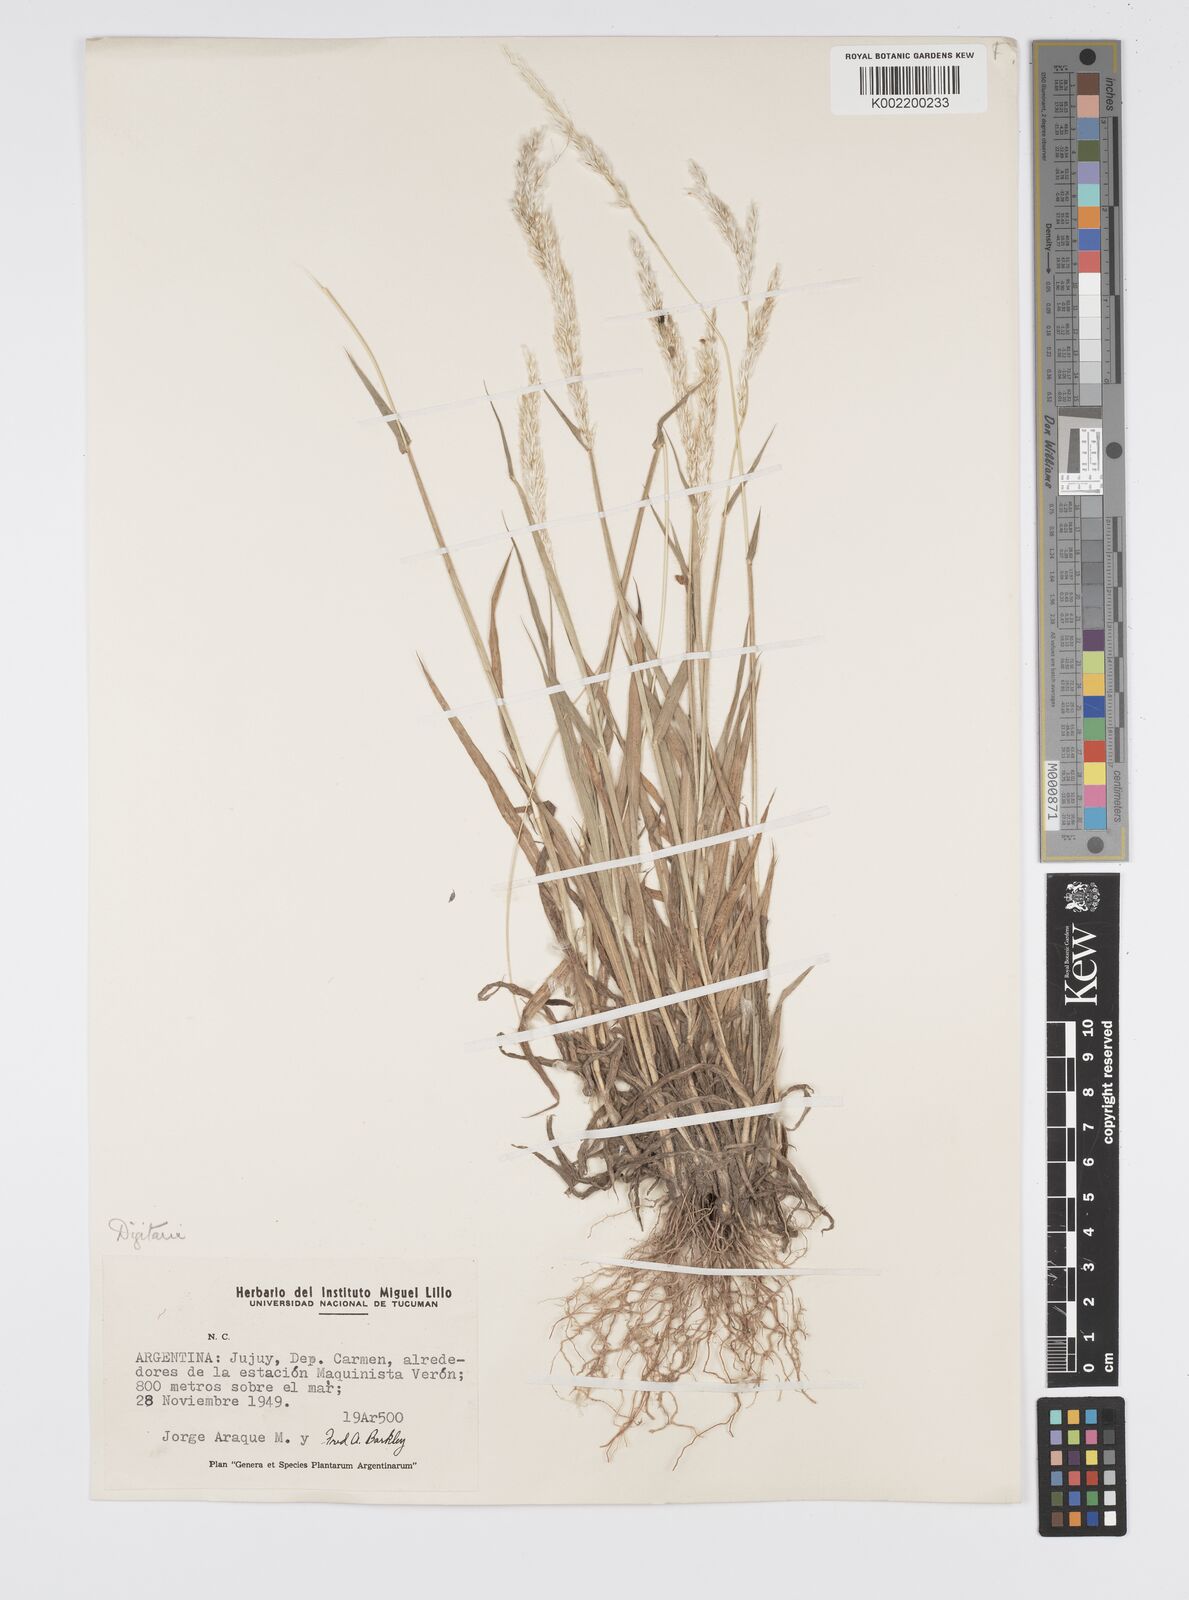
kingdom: Plantae
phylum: Tracheophyta
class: Liliopsida
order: Poales
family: Poaceae
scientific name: Poaceae
